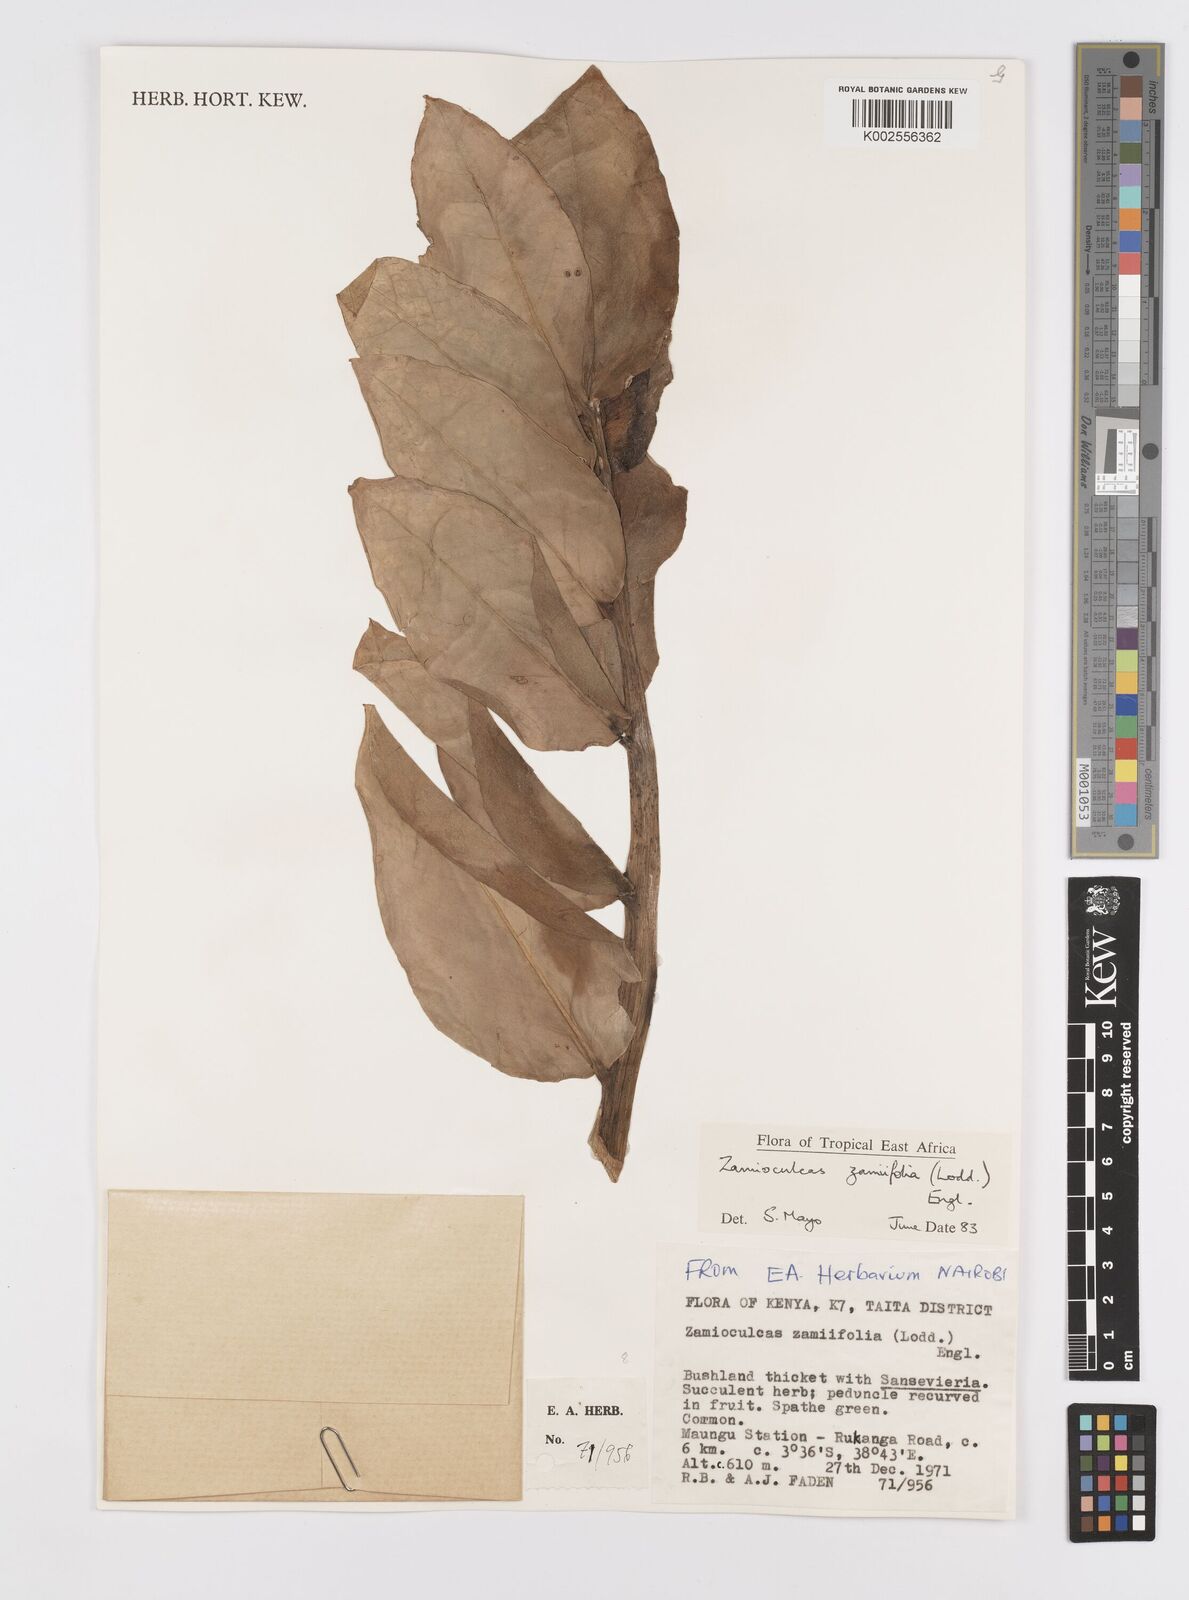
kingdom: Plantae
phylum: Tracheophyta
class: Liliopsida
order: Alismatales
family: Araceae
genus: Zamioculcas
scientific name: Zamioculcas zamiifolia
